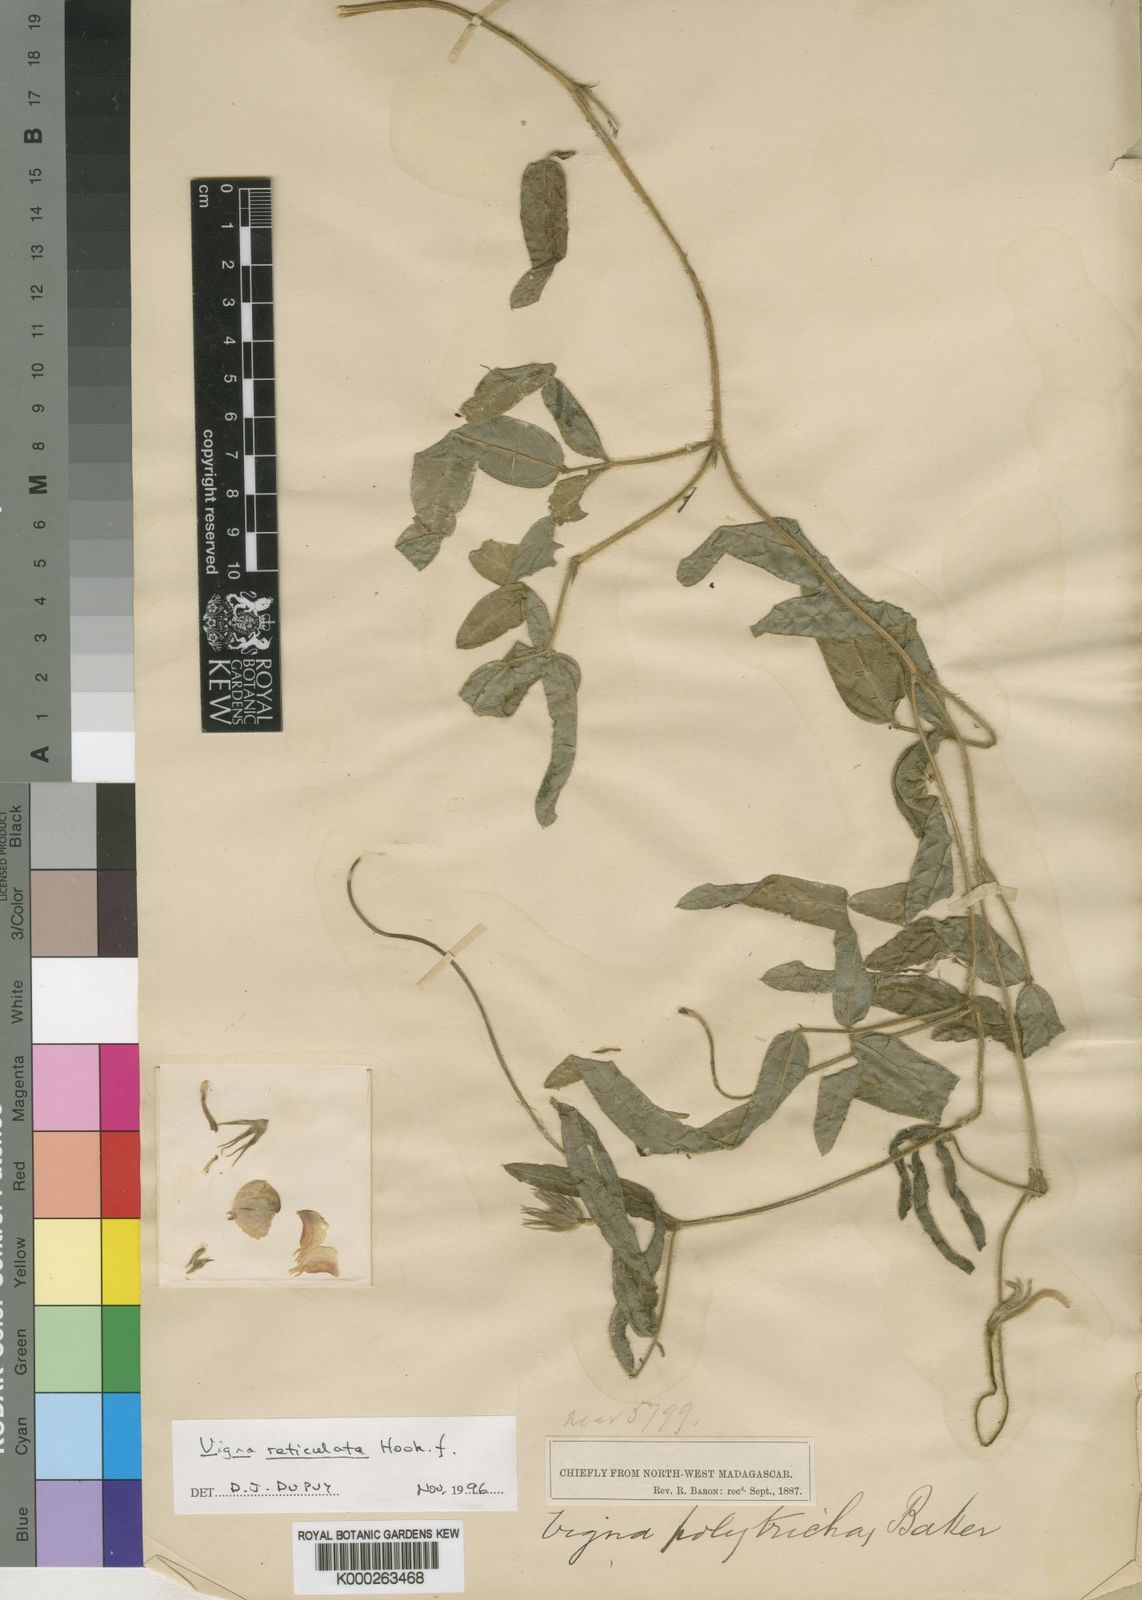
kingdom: Plantae
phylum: Tracheophyta
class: Magnoliopsida
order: Fabales
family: Fabaceae
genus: Vigna
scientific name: Vigna reticulata
